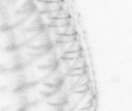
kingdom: Animalia
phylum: Arthropoda
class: Maxillopoda
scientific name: Maxillopoda
